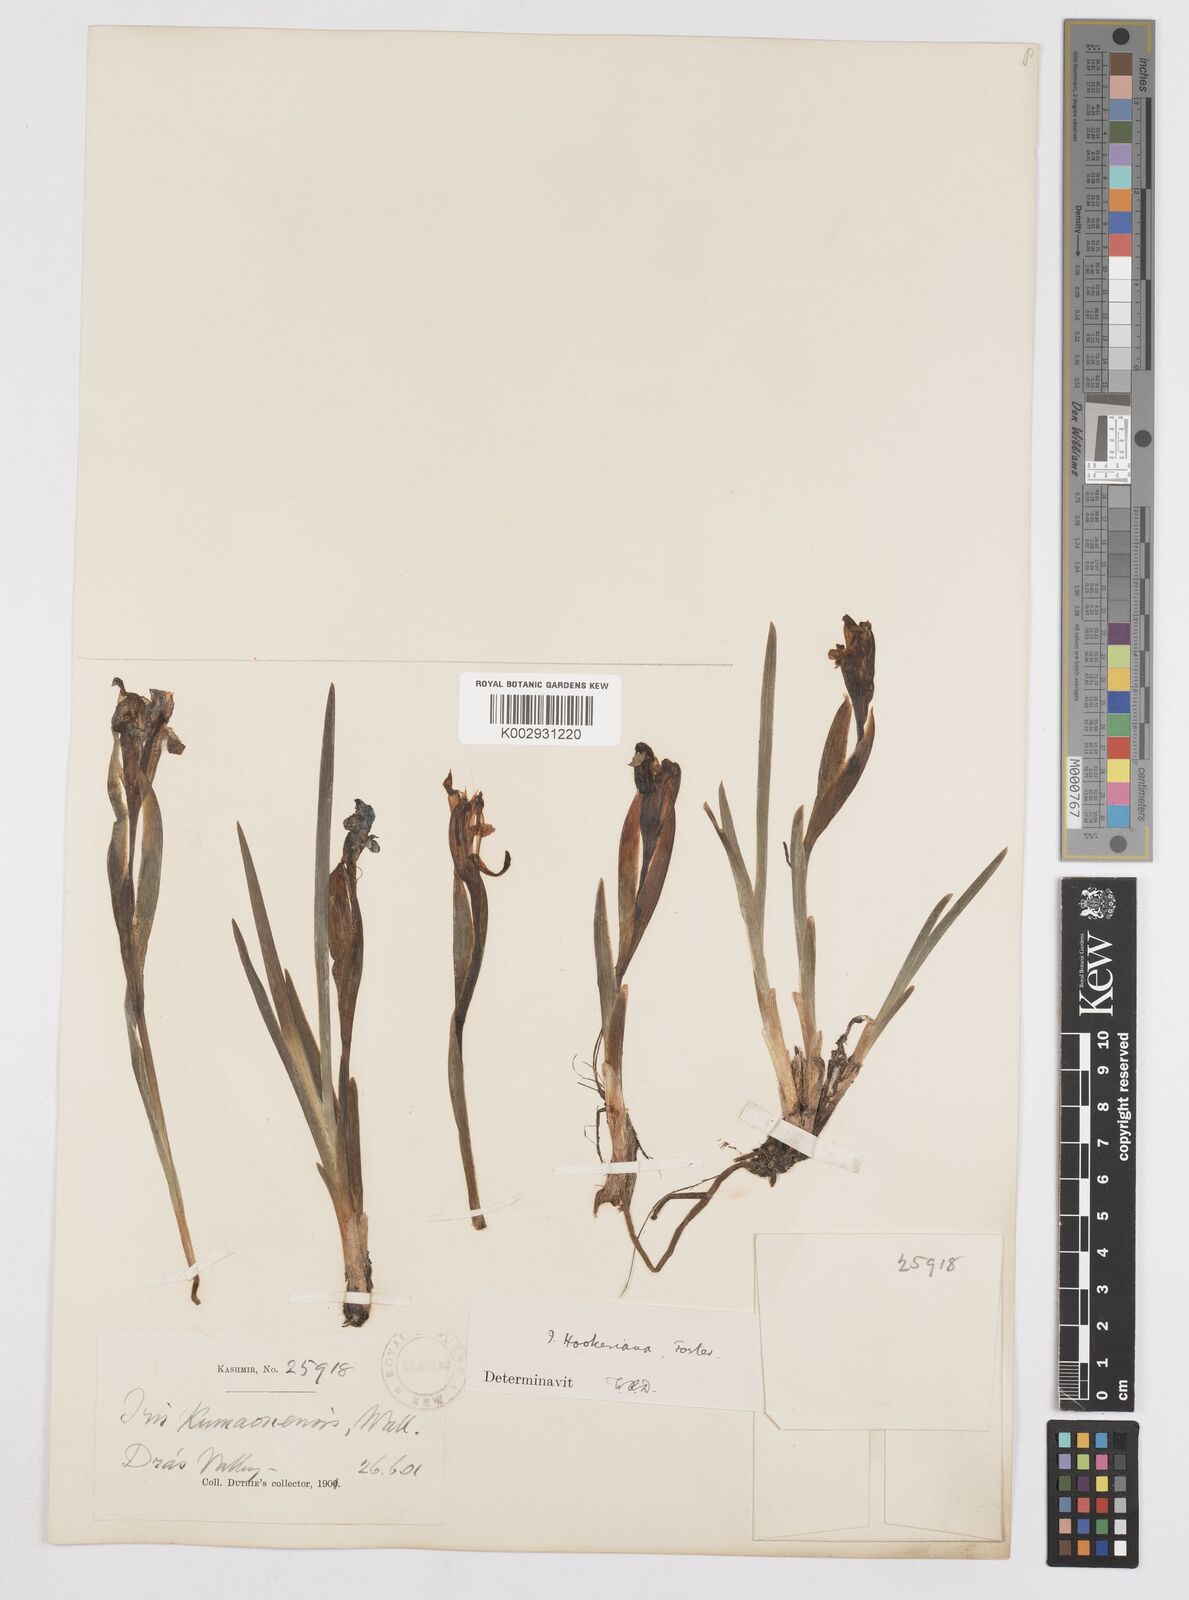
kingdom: Plantae
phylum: Tracheophyta
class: Liliopsida
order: Asparagales
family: Iridaceae
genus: Iris
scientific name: Iris hookeriana
